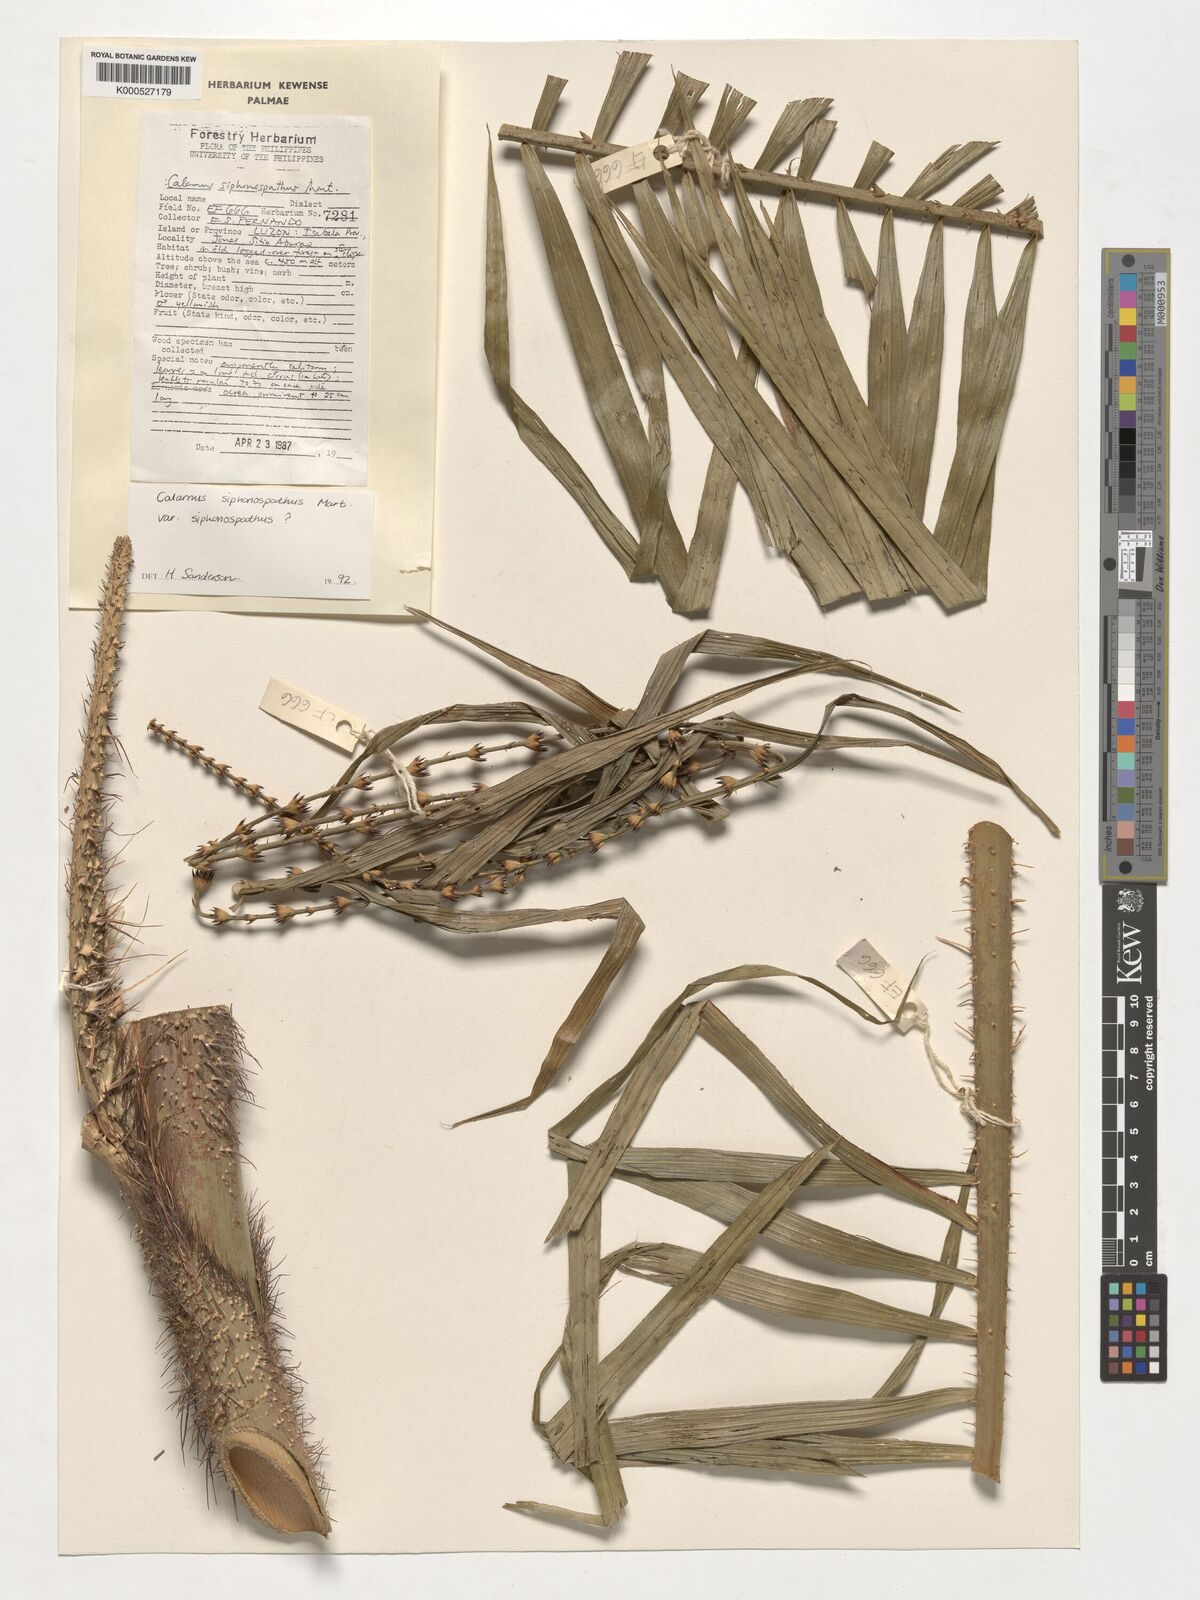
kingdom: Plantae
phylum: Tracheophyta
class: Liliopsida
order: Arecales
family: Arecaceae
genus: Calamus
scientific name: Calamus siphonospathus
